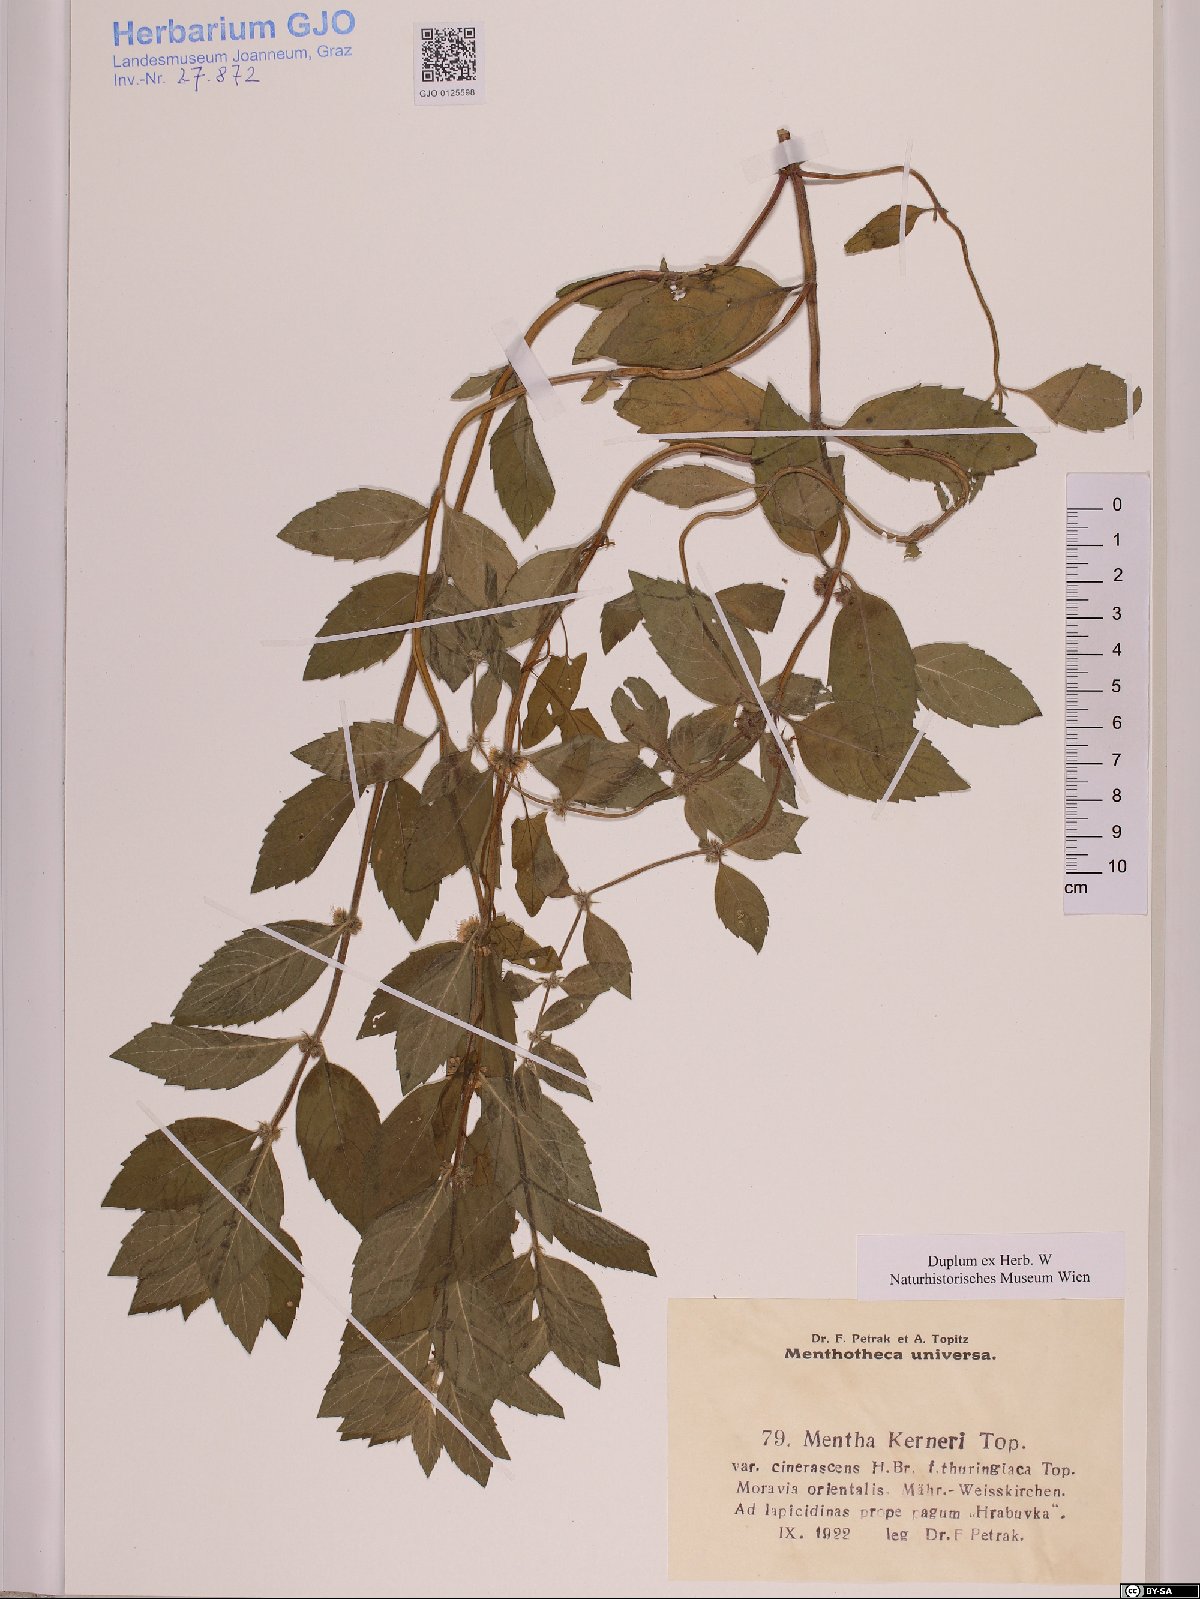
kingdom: Plantae
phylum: Tracheophyta
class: Magnoliopsida
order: Lamiales
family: Lamiaceae
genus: Mentha
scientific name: Mentha dalmatica
